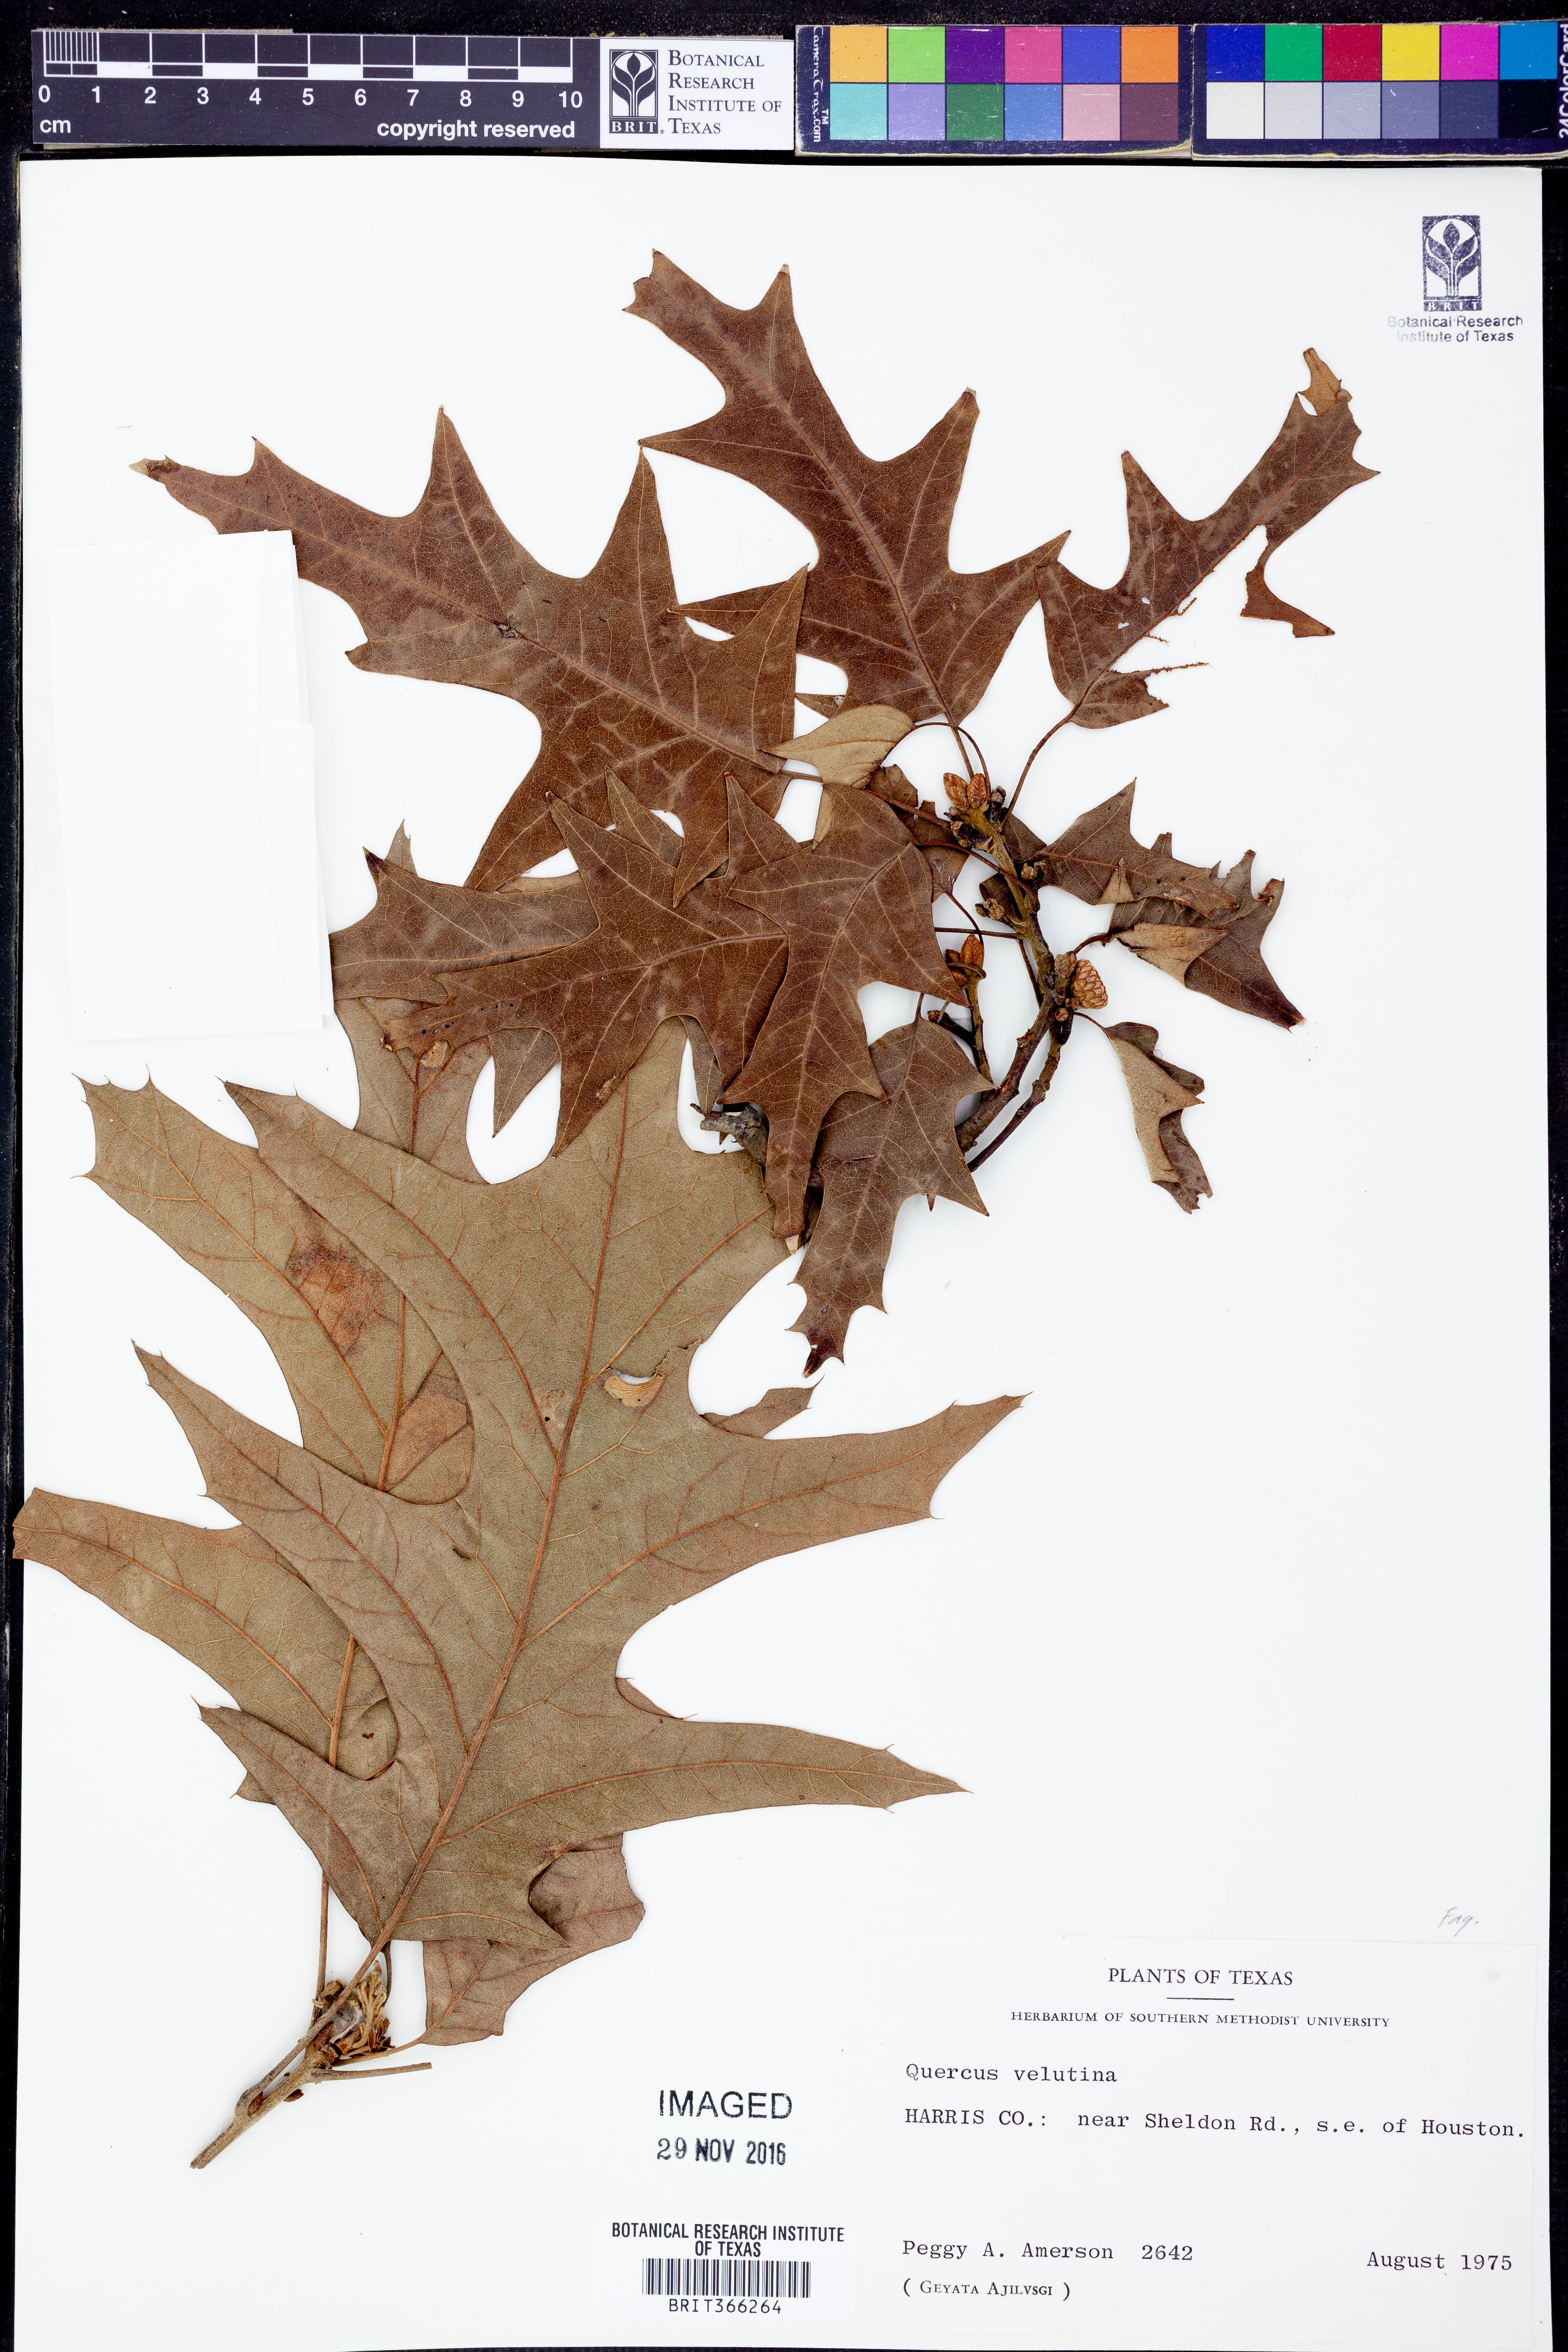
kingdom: Plantae
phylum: Tracheophyta
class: Magnoliopsida
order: Fagales
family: Fagaceae
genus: Quercus
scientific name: Quercus velutina
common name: Black oak
